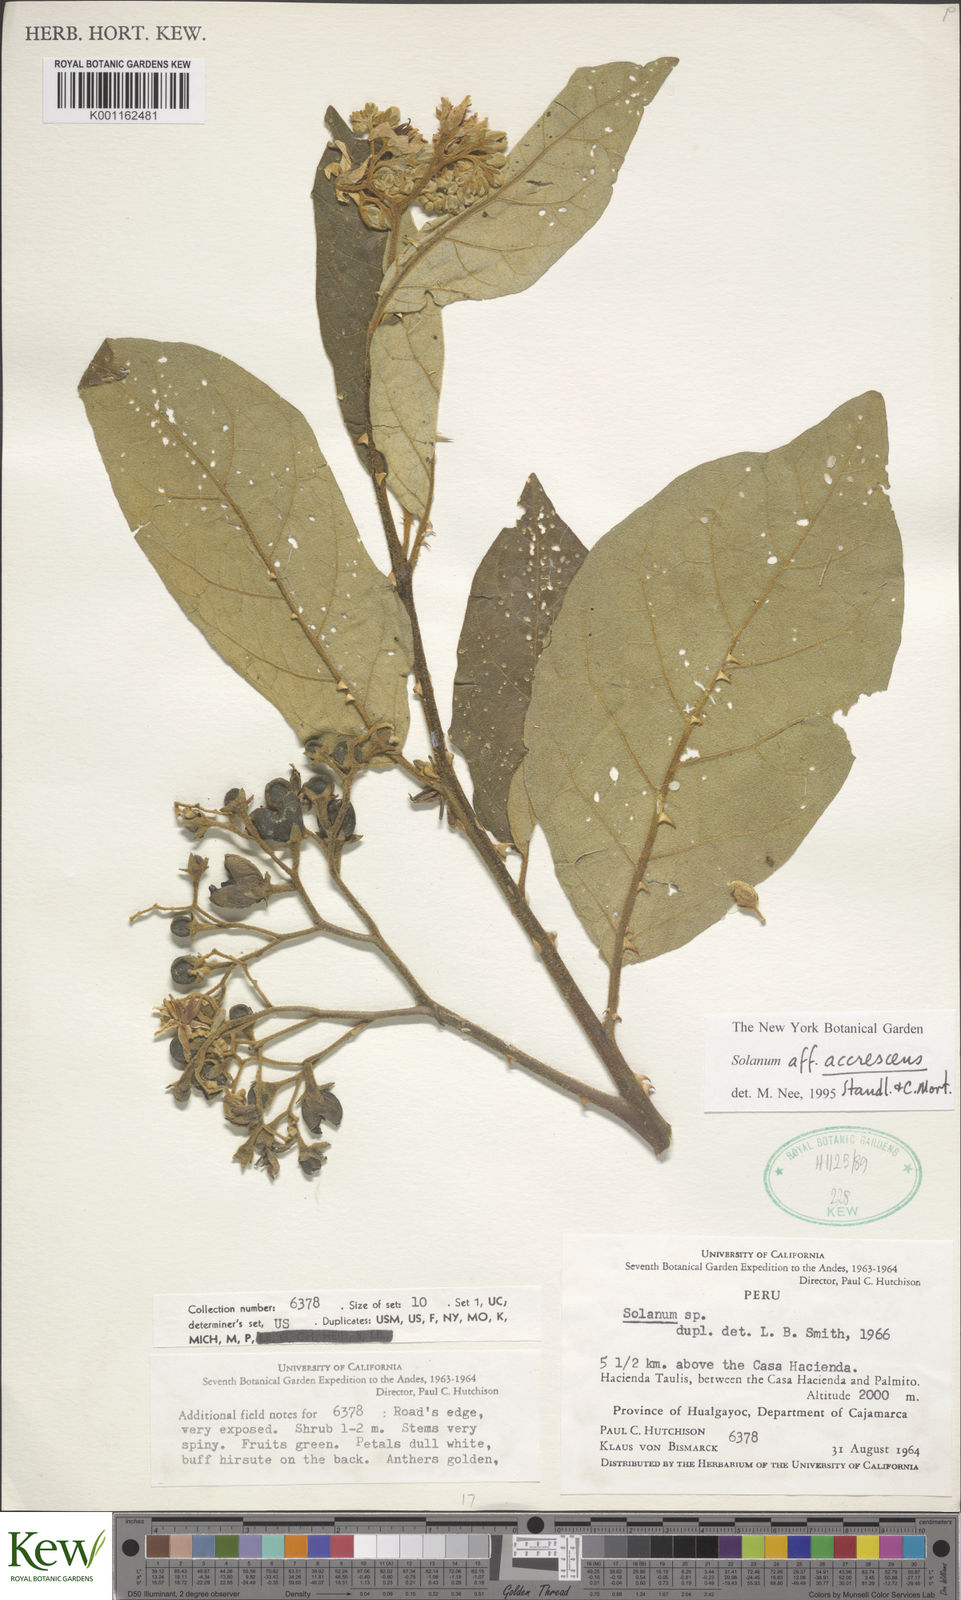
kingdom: Plantae
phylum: Tracheophyta
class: Magnoliopsida
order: Solanales
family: Solanaceae
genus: Solanum
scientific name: Solanum accrescens
